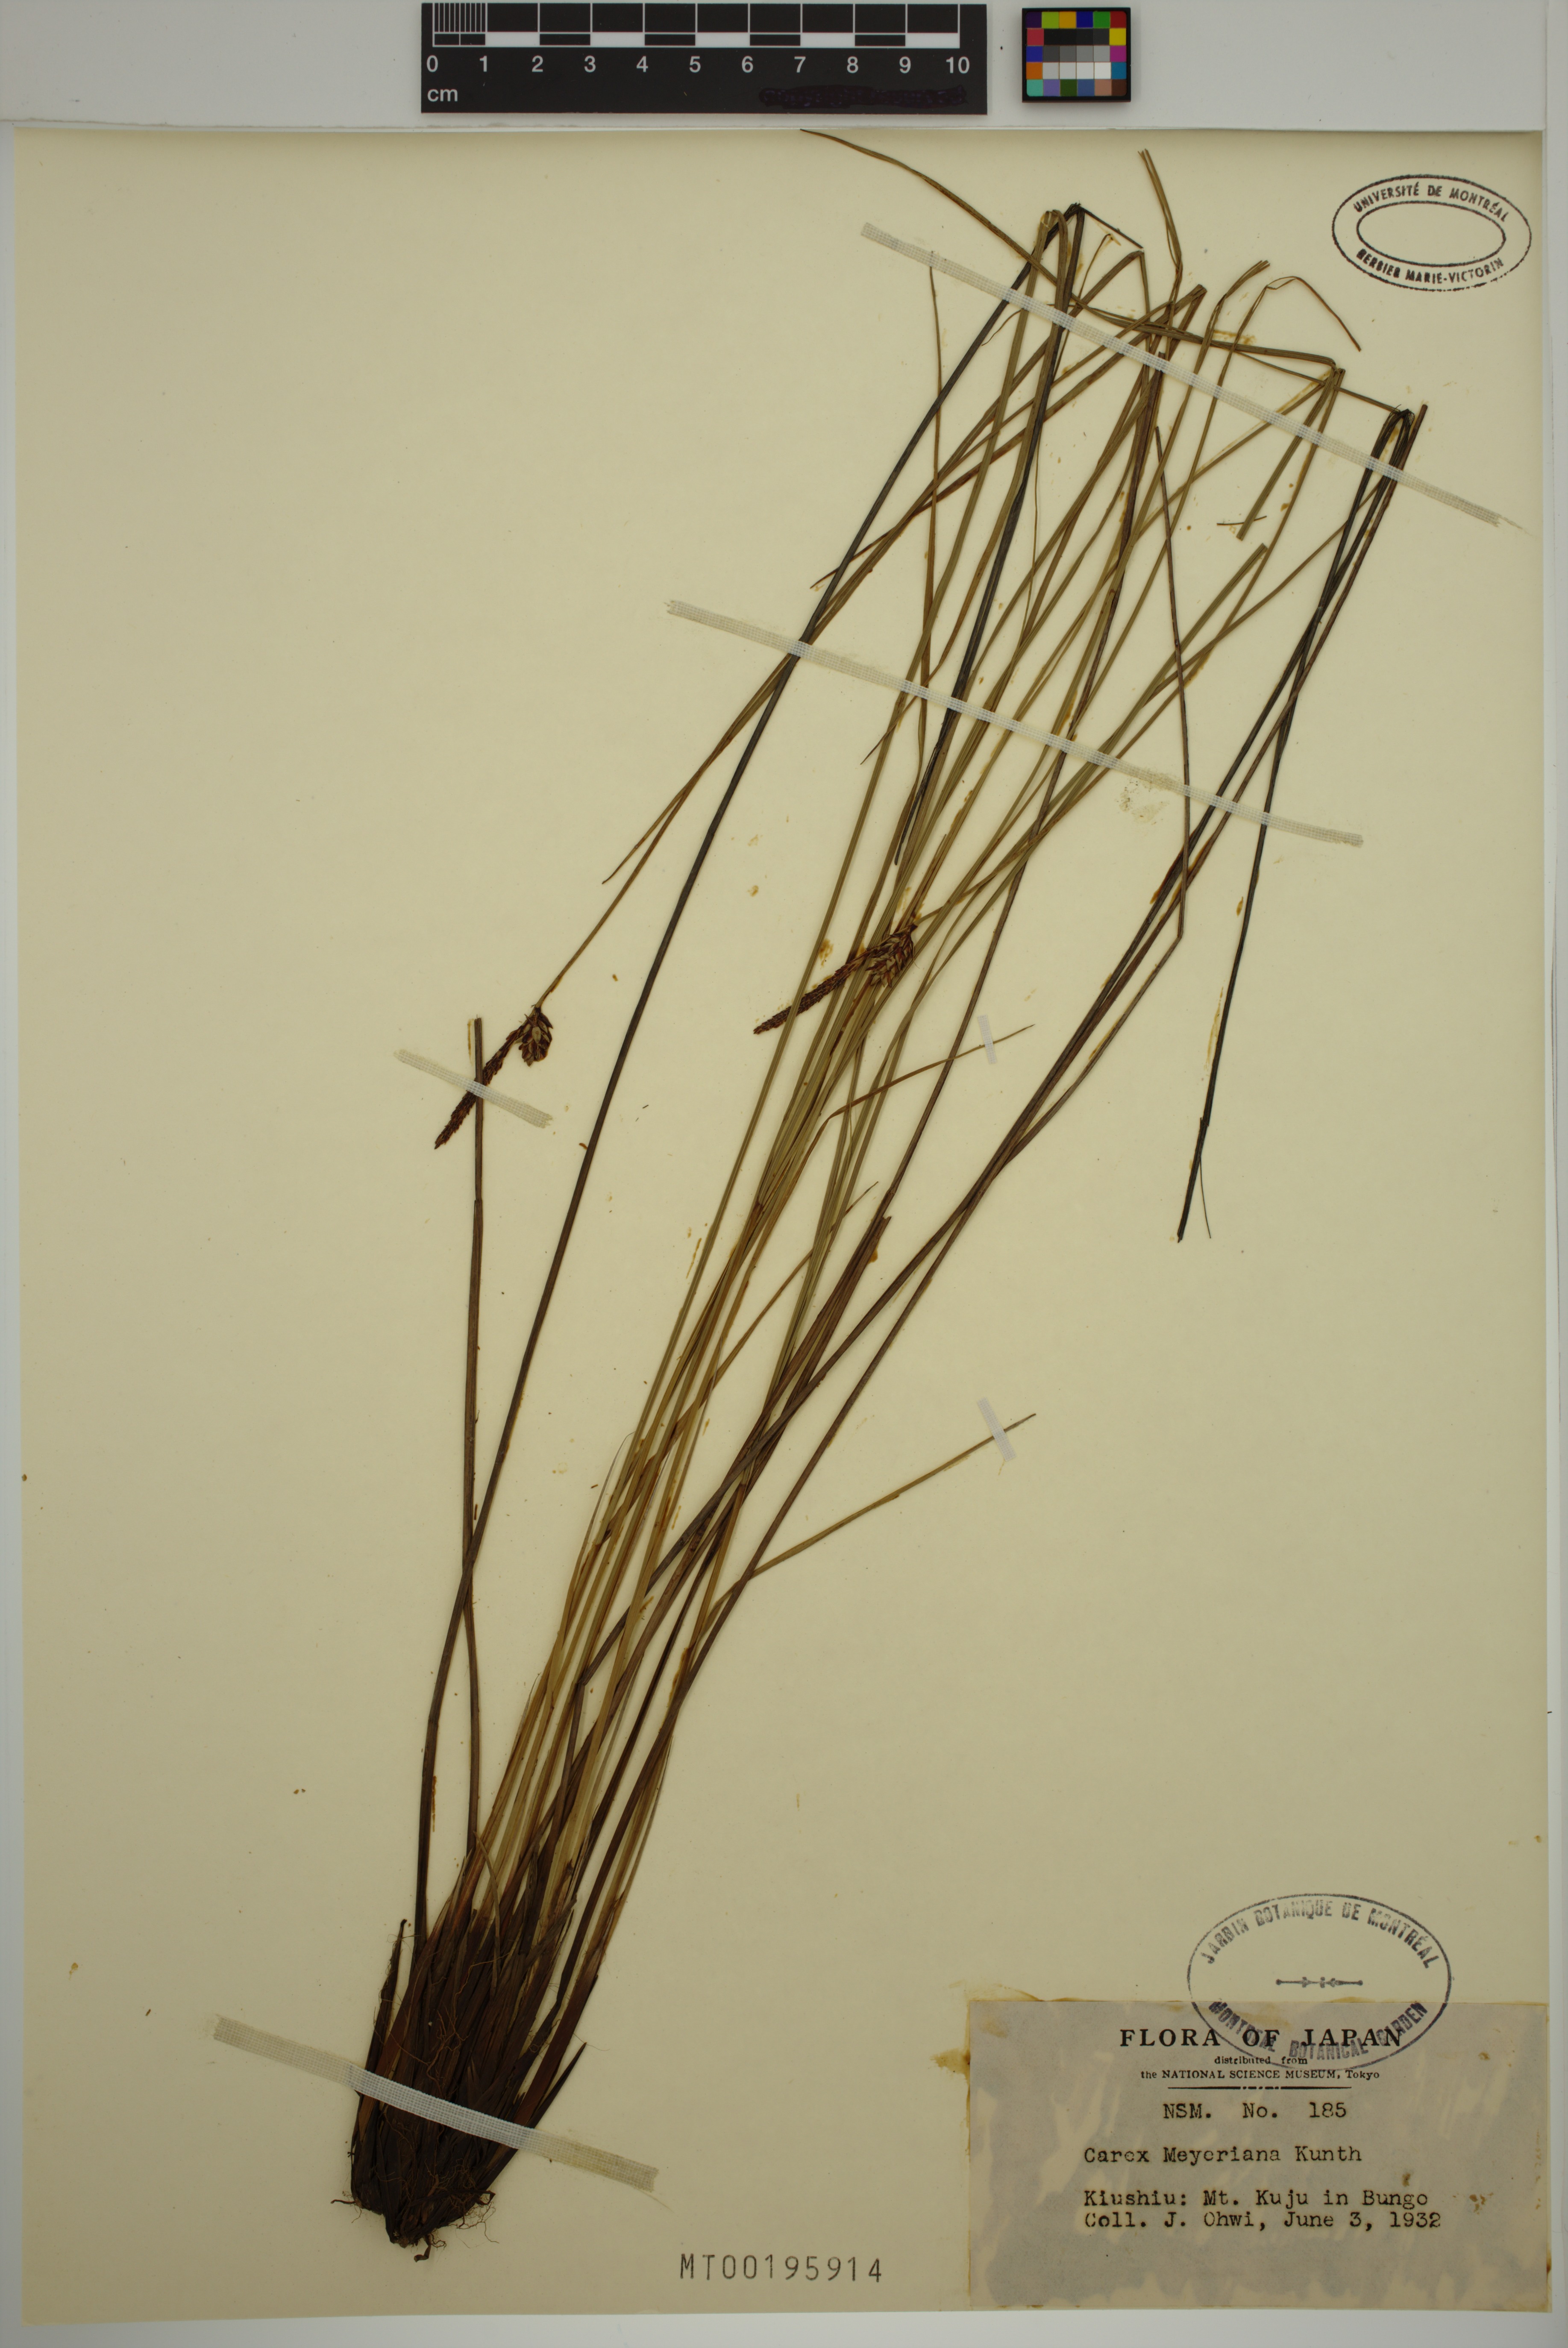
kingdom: Plantae
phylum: Tracheophyta
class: Liliopsida
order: Poales
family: Cyperaceae
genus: Carex
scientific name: Carex meyeriana
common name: Wula sedge
